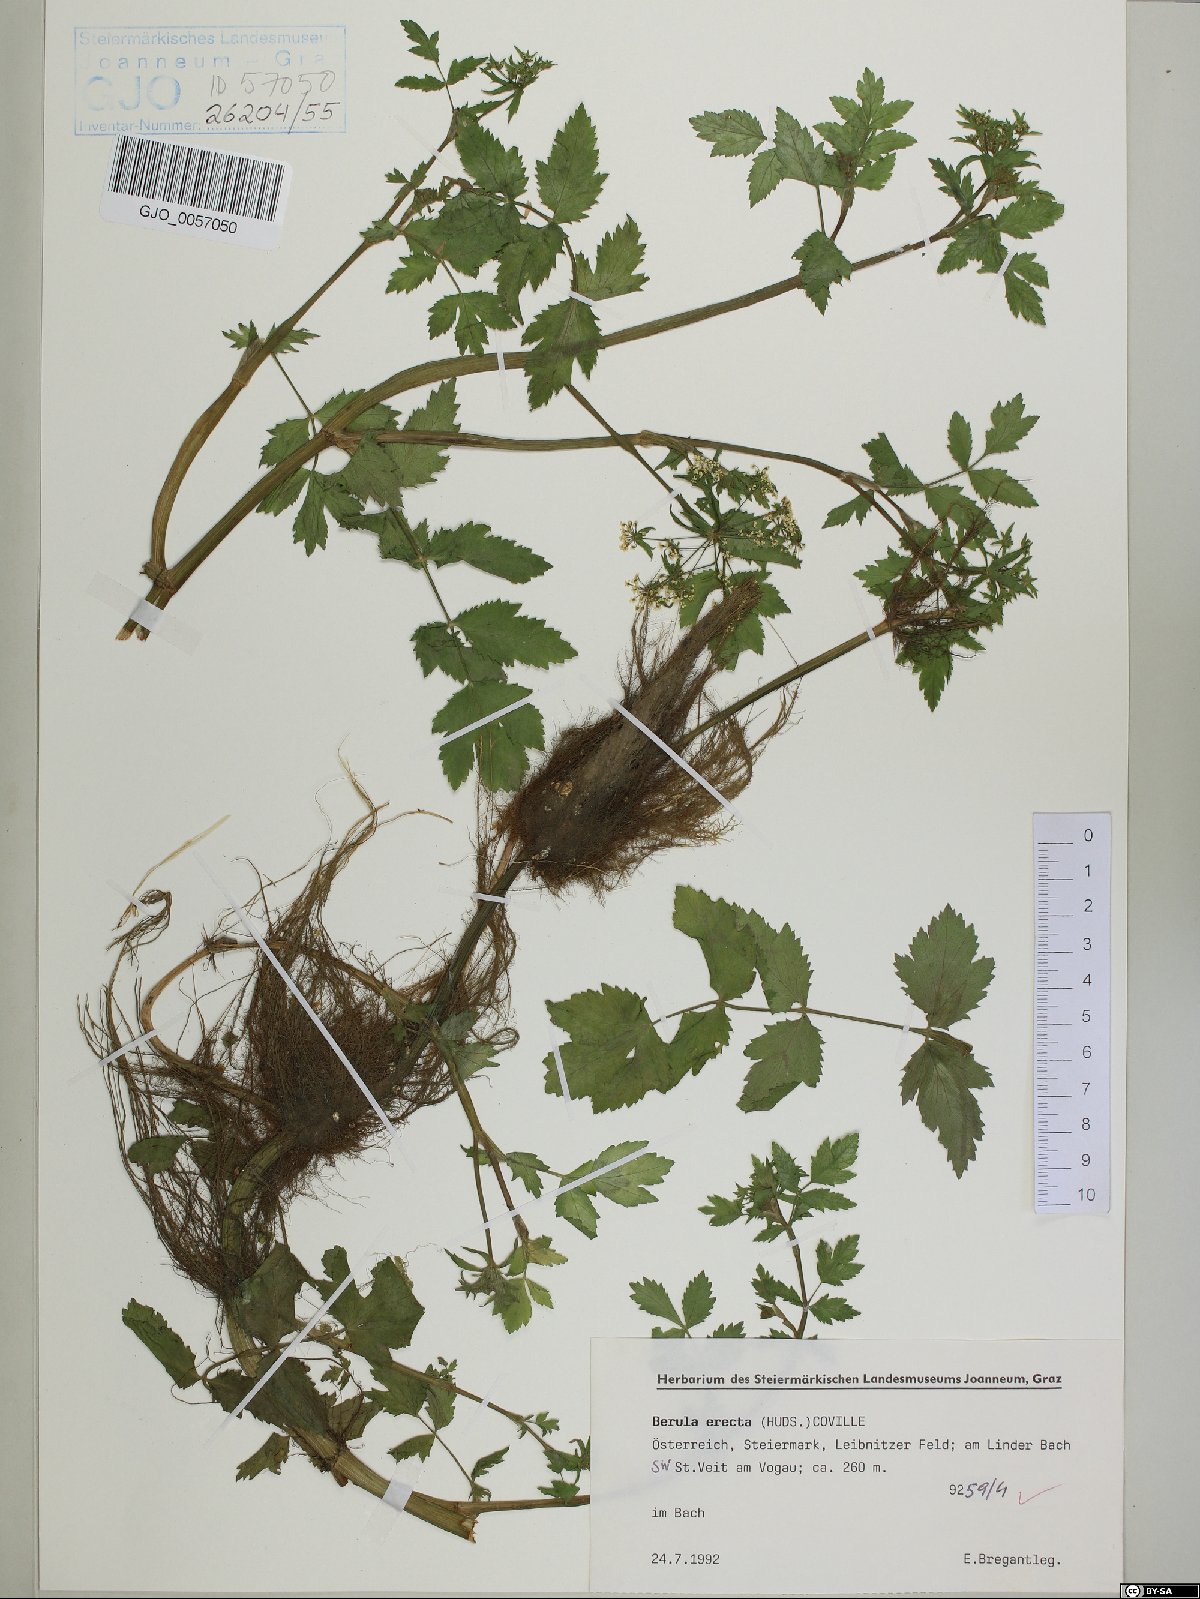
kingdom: Plantae
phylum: Tracheophyta
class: Magnoliopsida
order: Apiales
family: Apiaceae
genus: Berula
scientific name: Berula erecta
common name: Lesser water-parsnip
